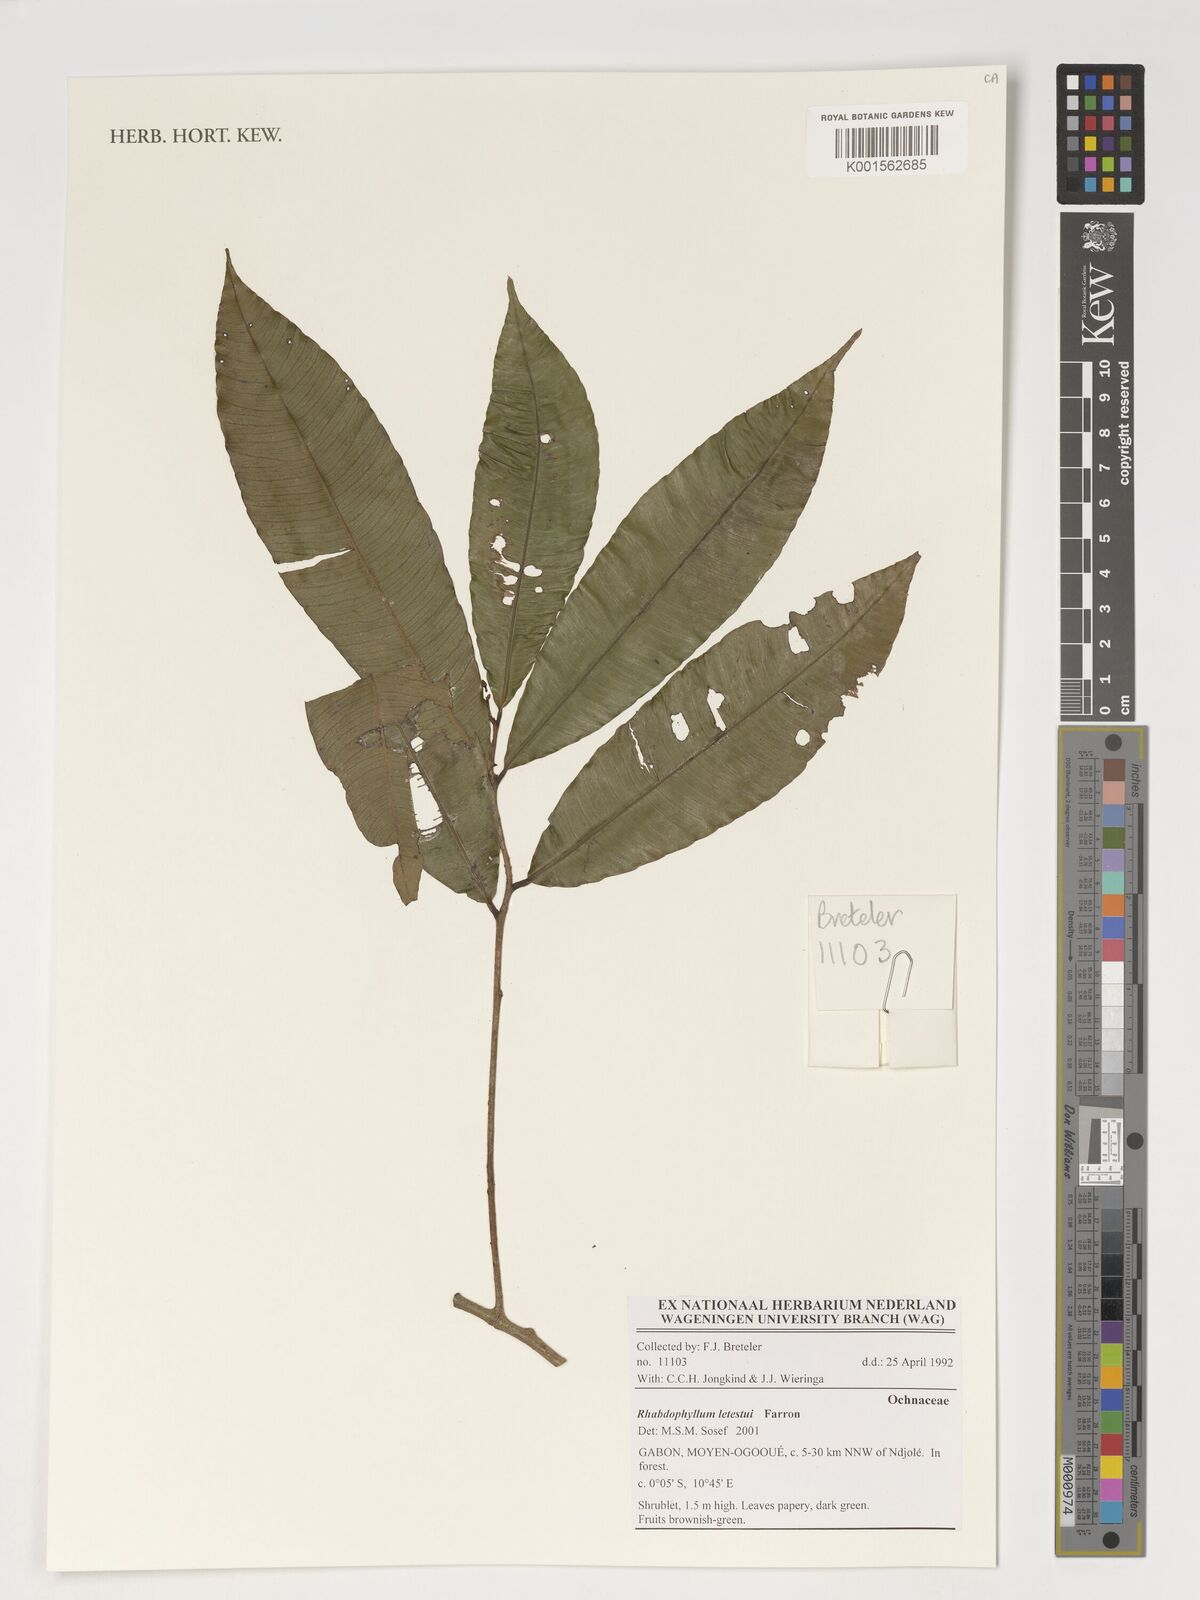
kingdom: Plantae
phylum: Tracheophyta
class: Magnoliopsida
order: Malpighiales
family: Ochnaceae
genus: Rhabdophyllum
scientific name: Rhabdophyllum letestui
